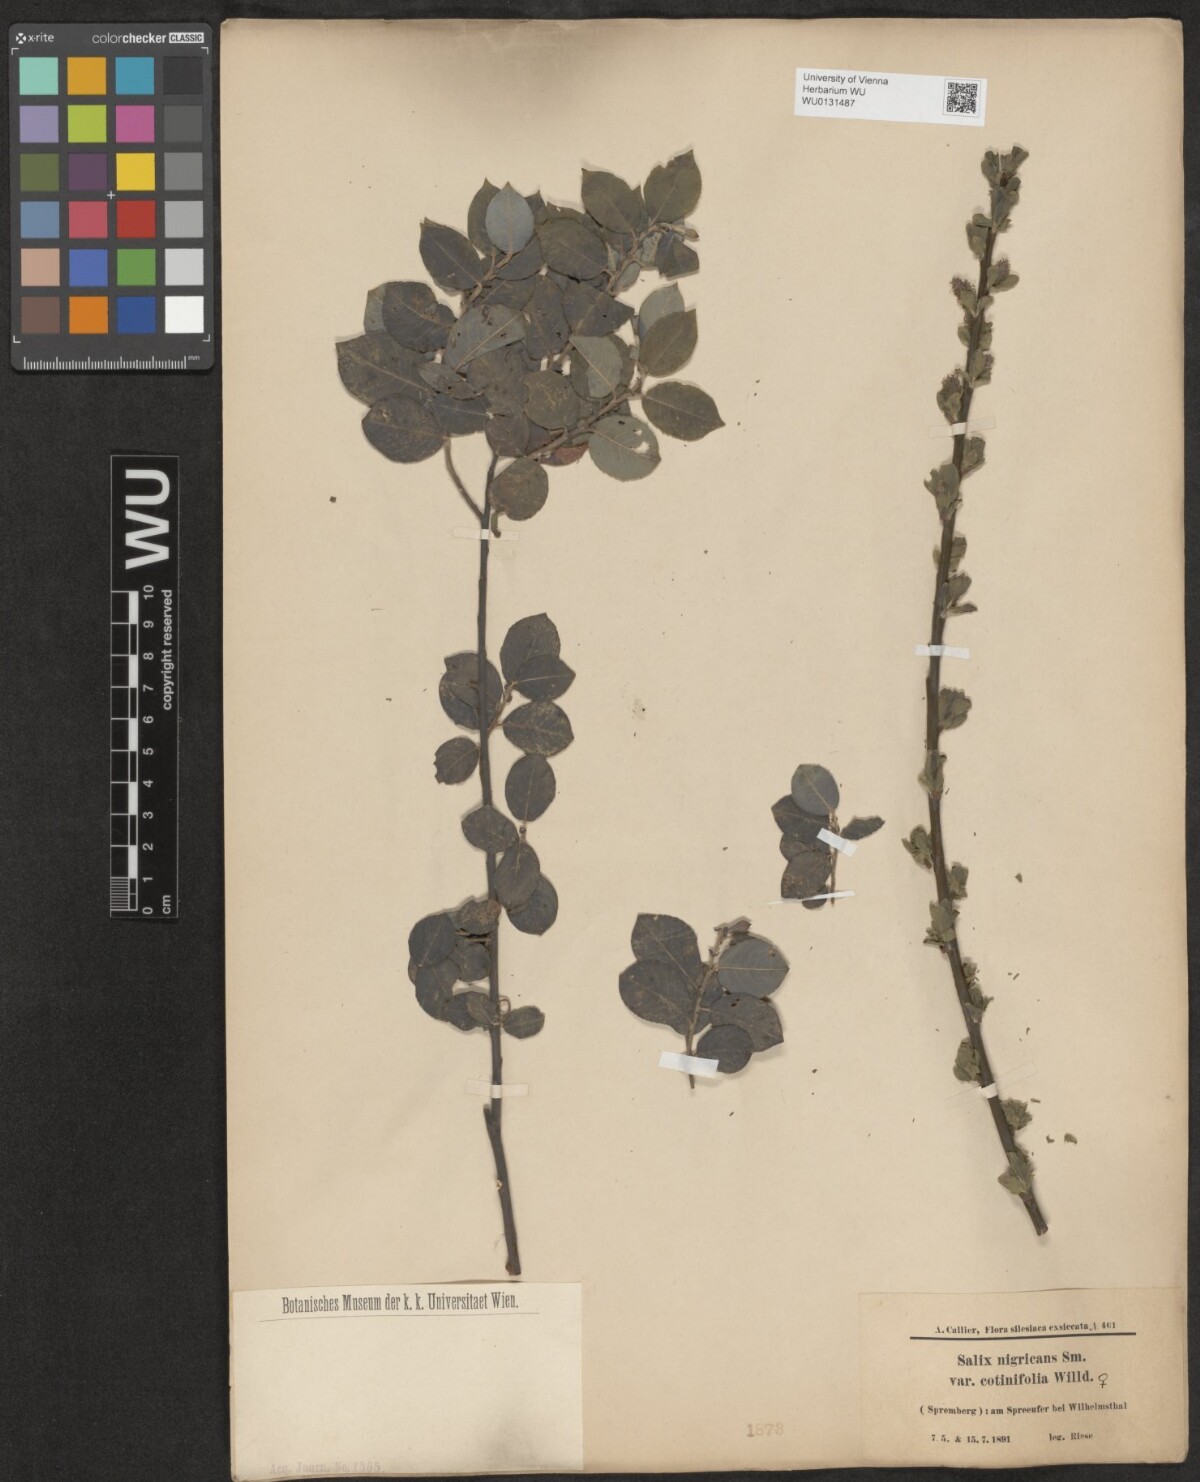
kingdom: Plantae
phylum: Tracheophyta
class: Magnoliopsida
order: Malpighiales
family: Salicaceae
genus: Salix
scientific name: Salix myrsinifolia
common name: Dark-leaved willow
